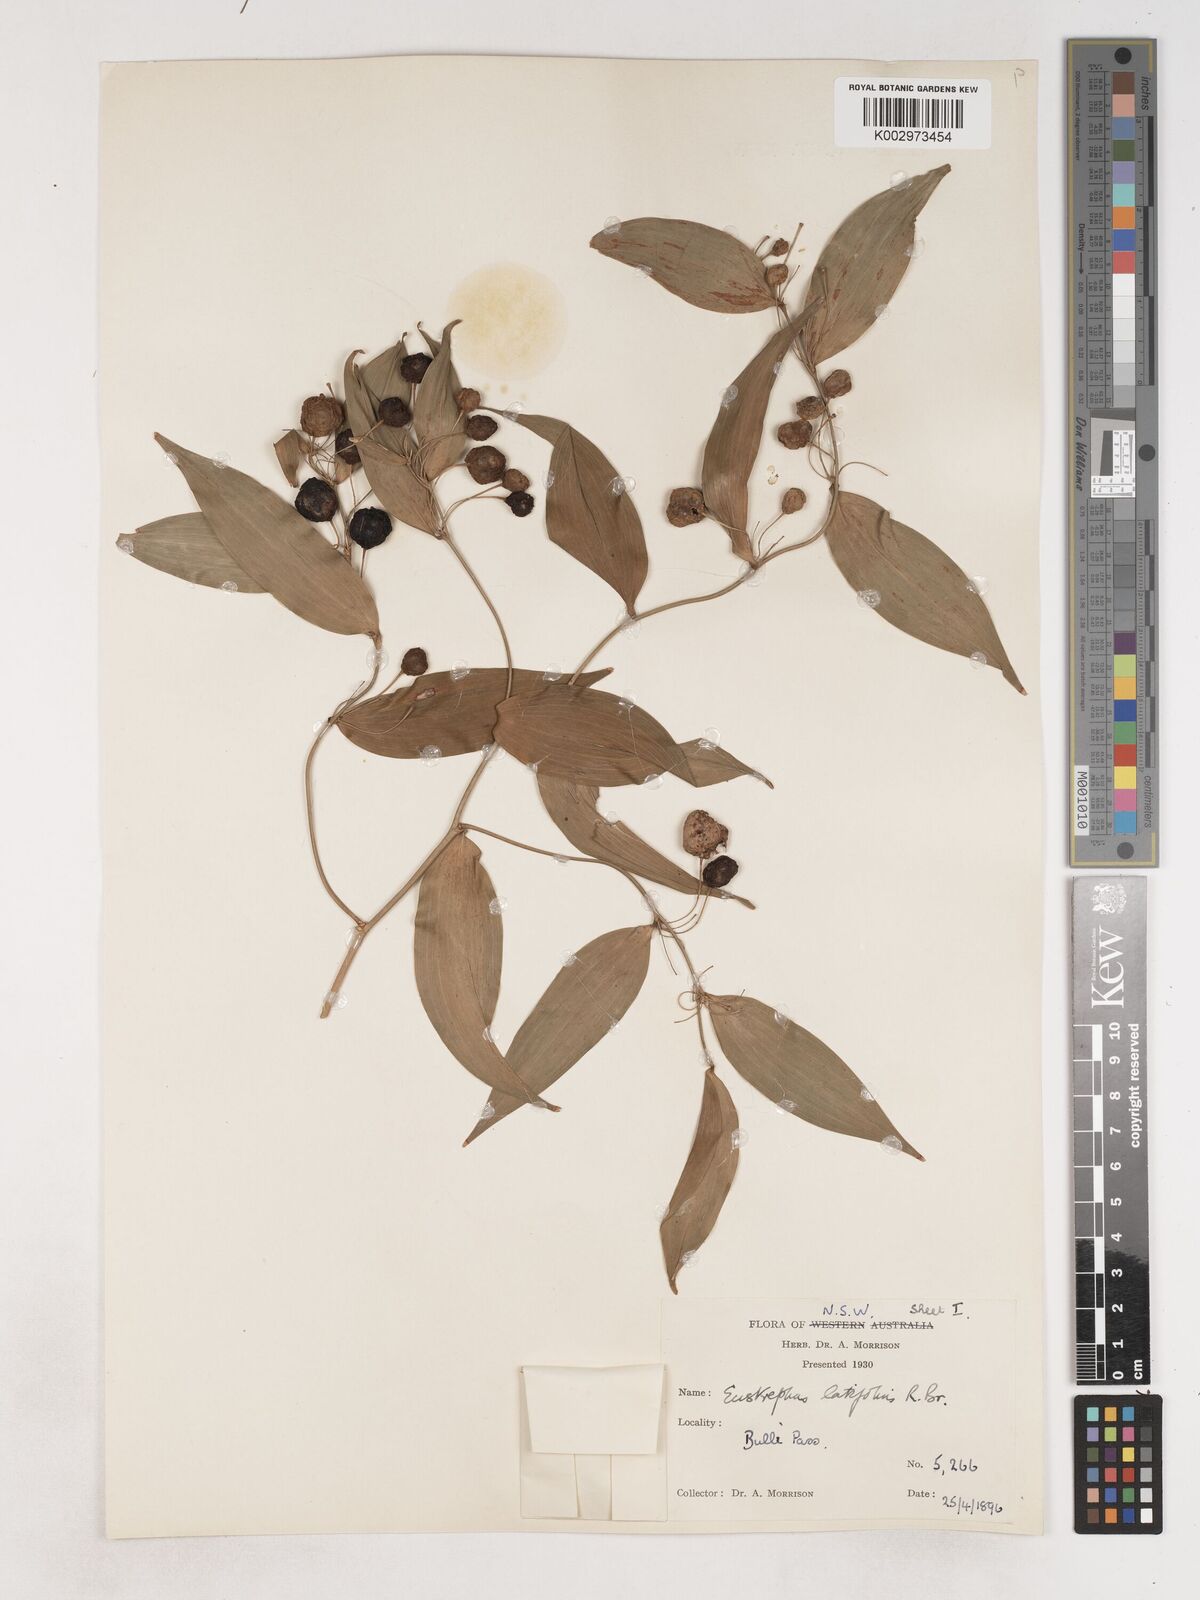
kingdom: Plantae
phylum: Tracheophyta
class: Liliopsida
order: Asparagales
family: Asparagaceae
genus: Eustrephus
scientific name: Eustrephus latifolius
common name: Orangevine
